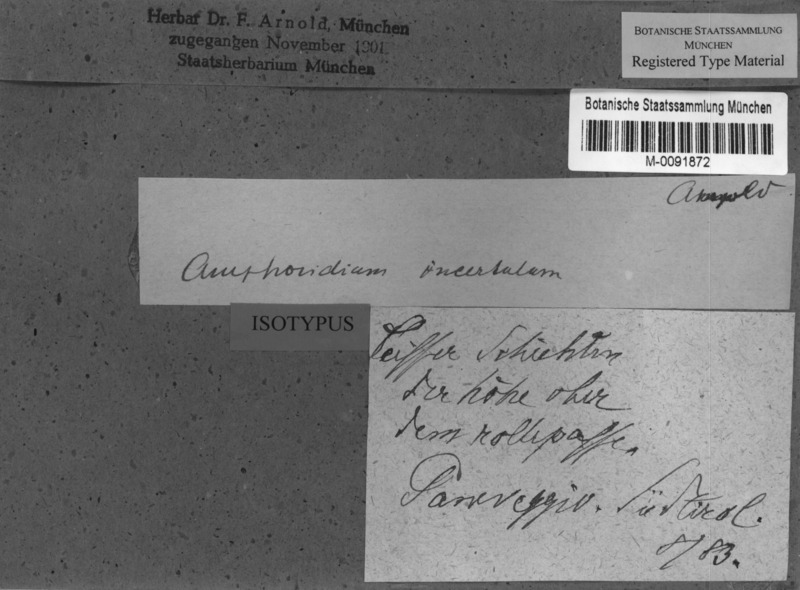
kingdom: Fungi
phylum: Ascomycota
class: Eurotiomycetes
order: Verrucariales
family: Verrucariaceae
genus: Verrucaria
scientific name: Verrucaria saprophila
